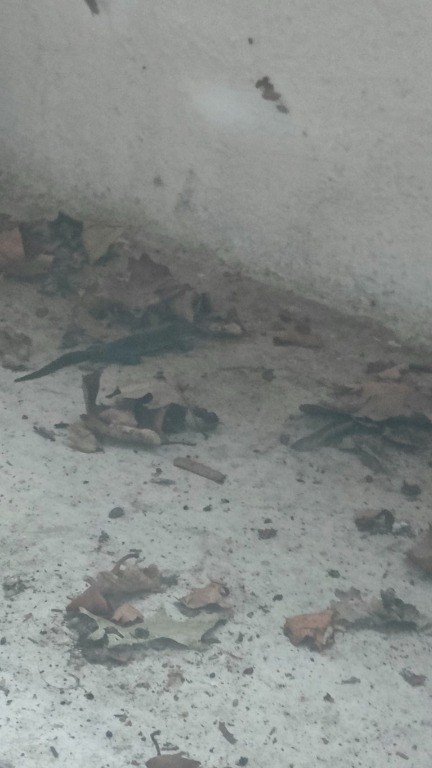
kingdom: Animalia
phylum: Chordata
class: Amphibia
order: Caudata
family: Salamandridae
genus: Triturus
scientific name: Triturus cristatus
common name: Stor vandsalamander
